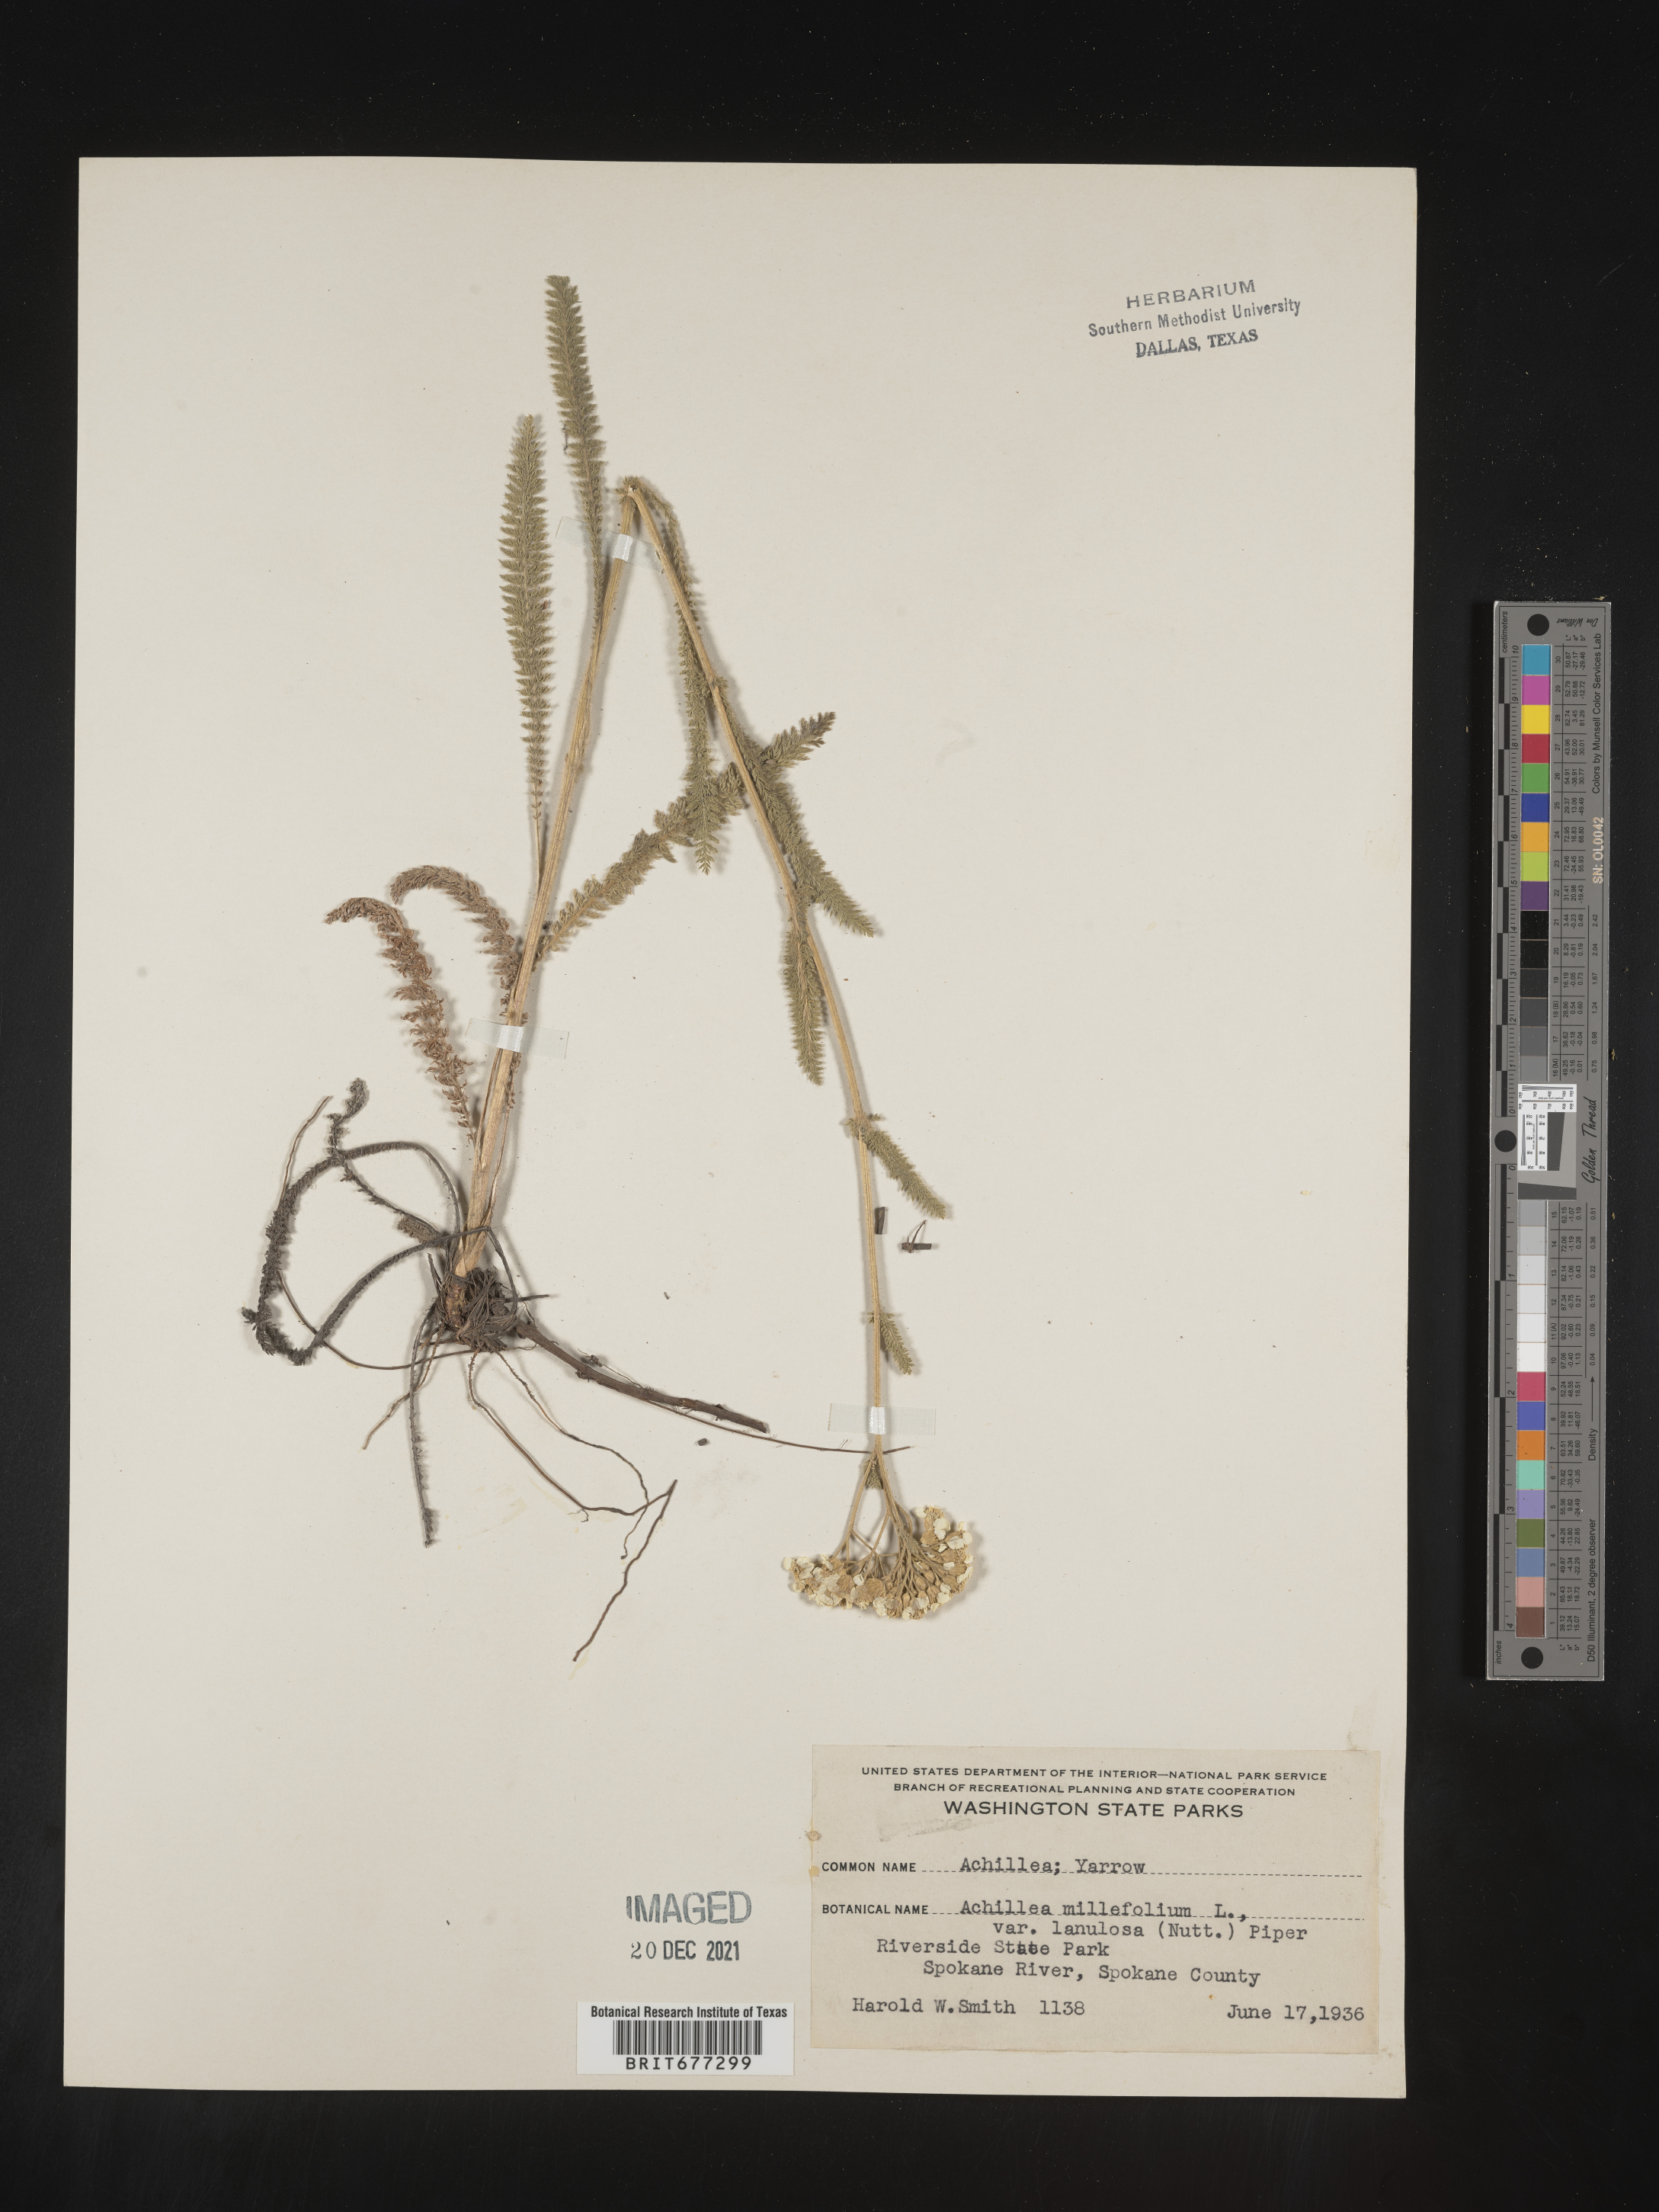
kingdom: Plantae
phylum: Tracheophyta
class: Magnoliopsida
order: Asterales
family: Asteraceae
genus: Achillea
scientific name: Achillea millefolium
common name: Yarrow
